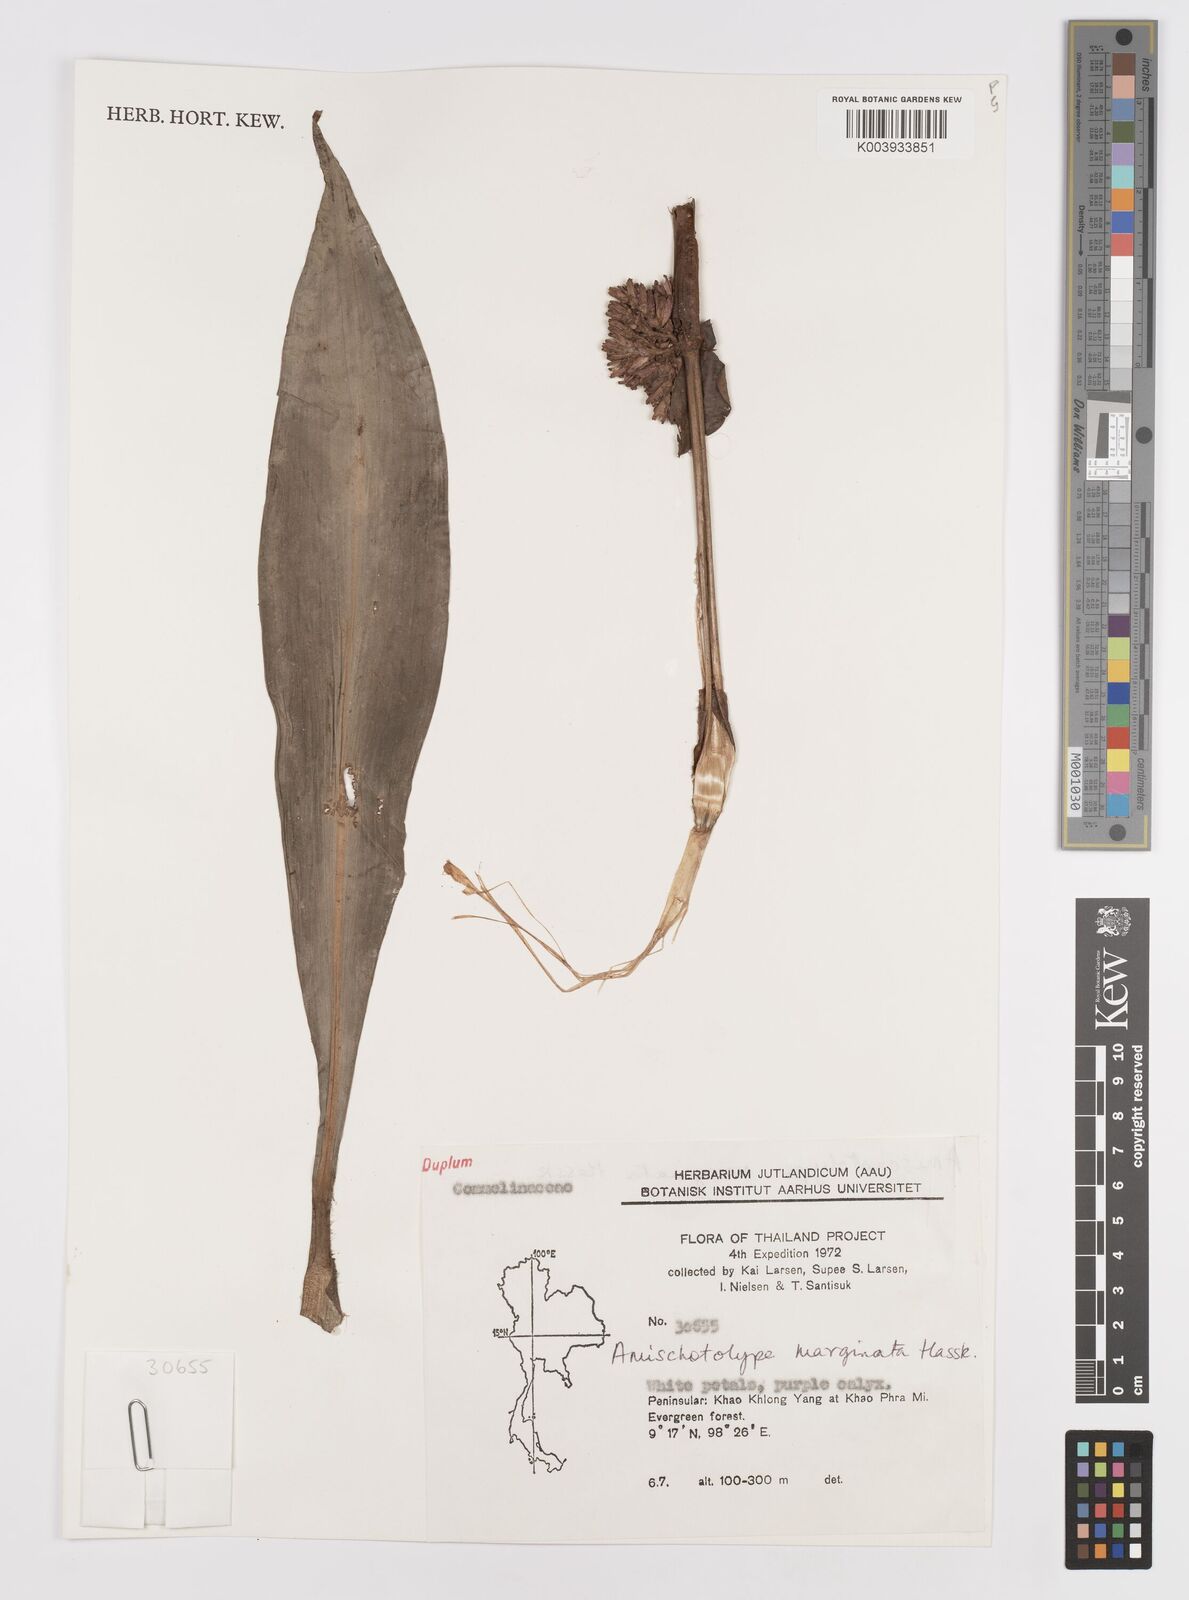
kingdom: Plantae
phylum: Tracheophyta
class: Liliopsida
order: Commelinales
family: Commelinaceae
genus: Amischotolype
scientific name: Amischotolype marginata
